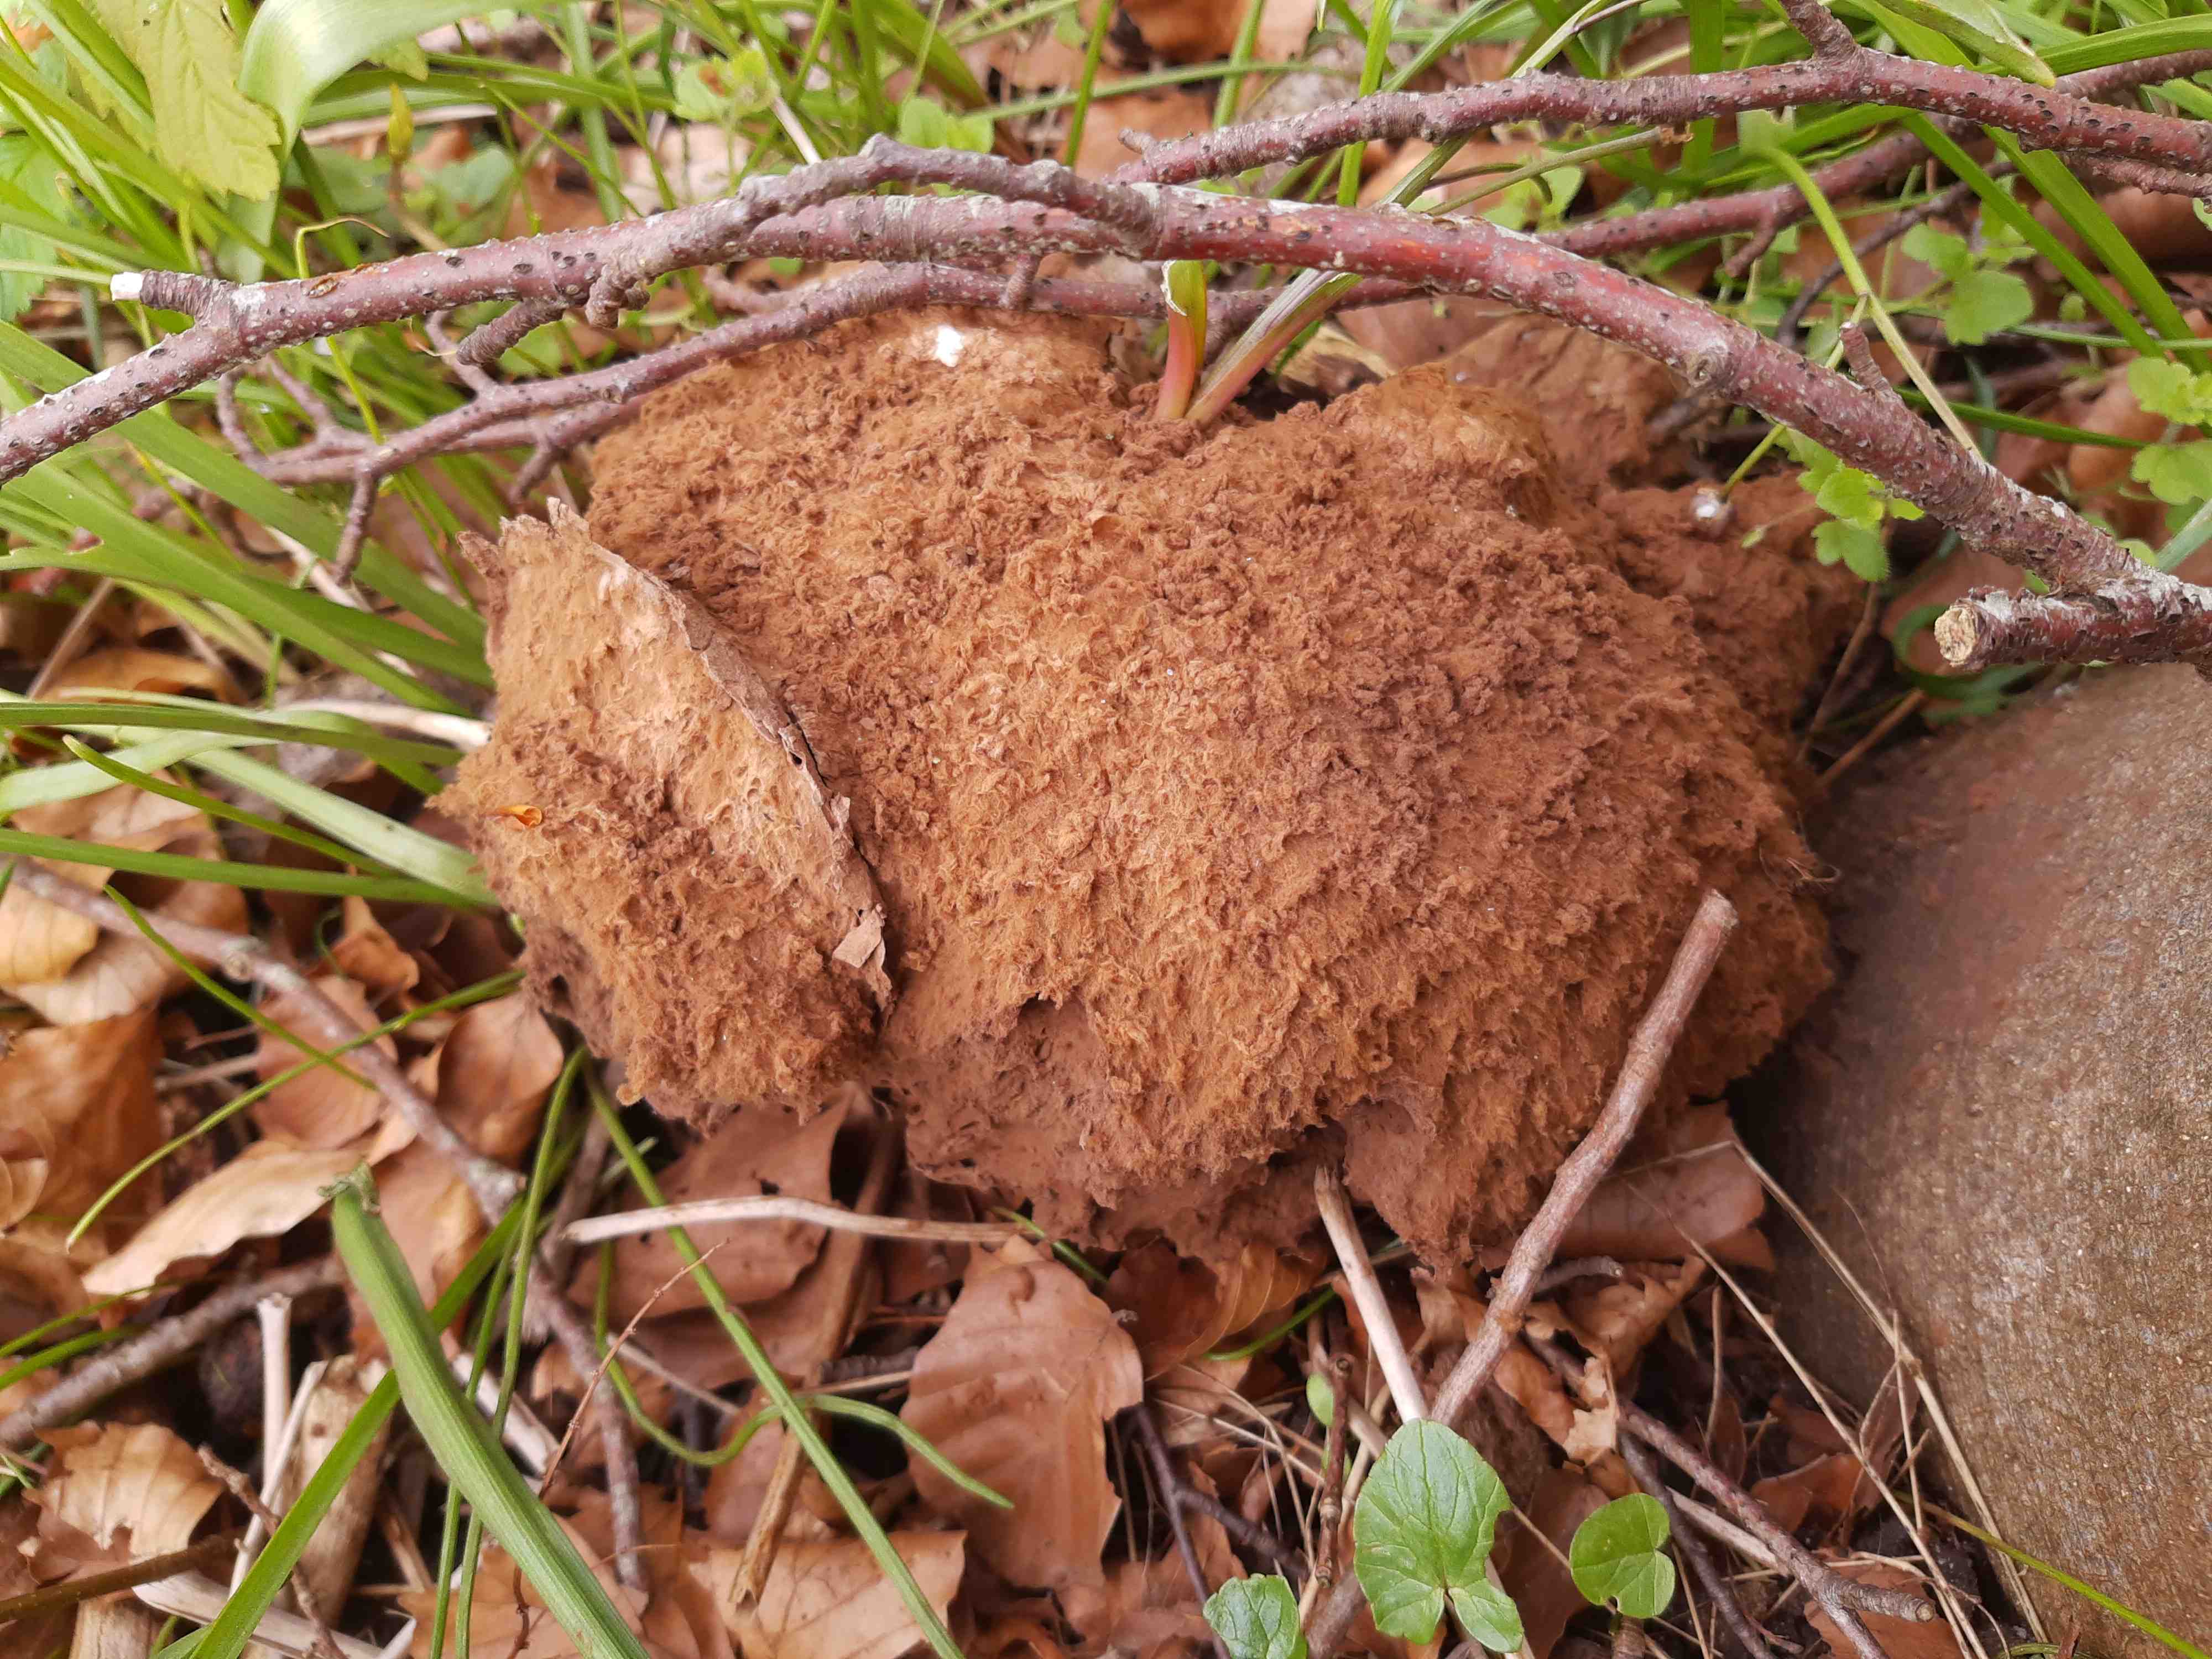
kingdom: Fungi
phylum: Basidiomycota
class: Agaricomycetes
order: Agaricales
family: Lycoperdaceae
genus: Calvatia
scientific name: Calvatia gigantea
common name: kæmpestøvbold
